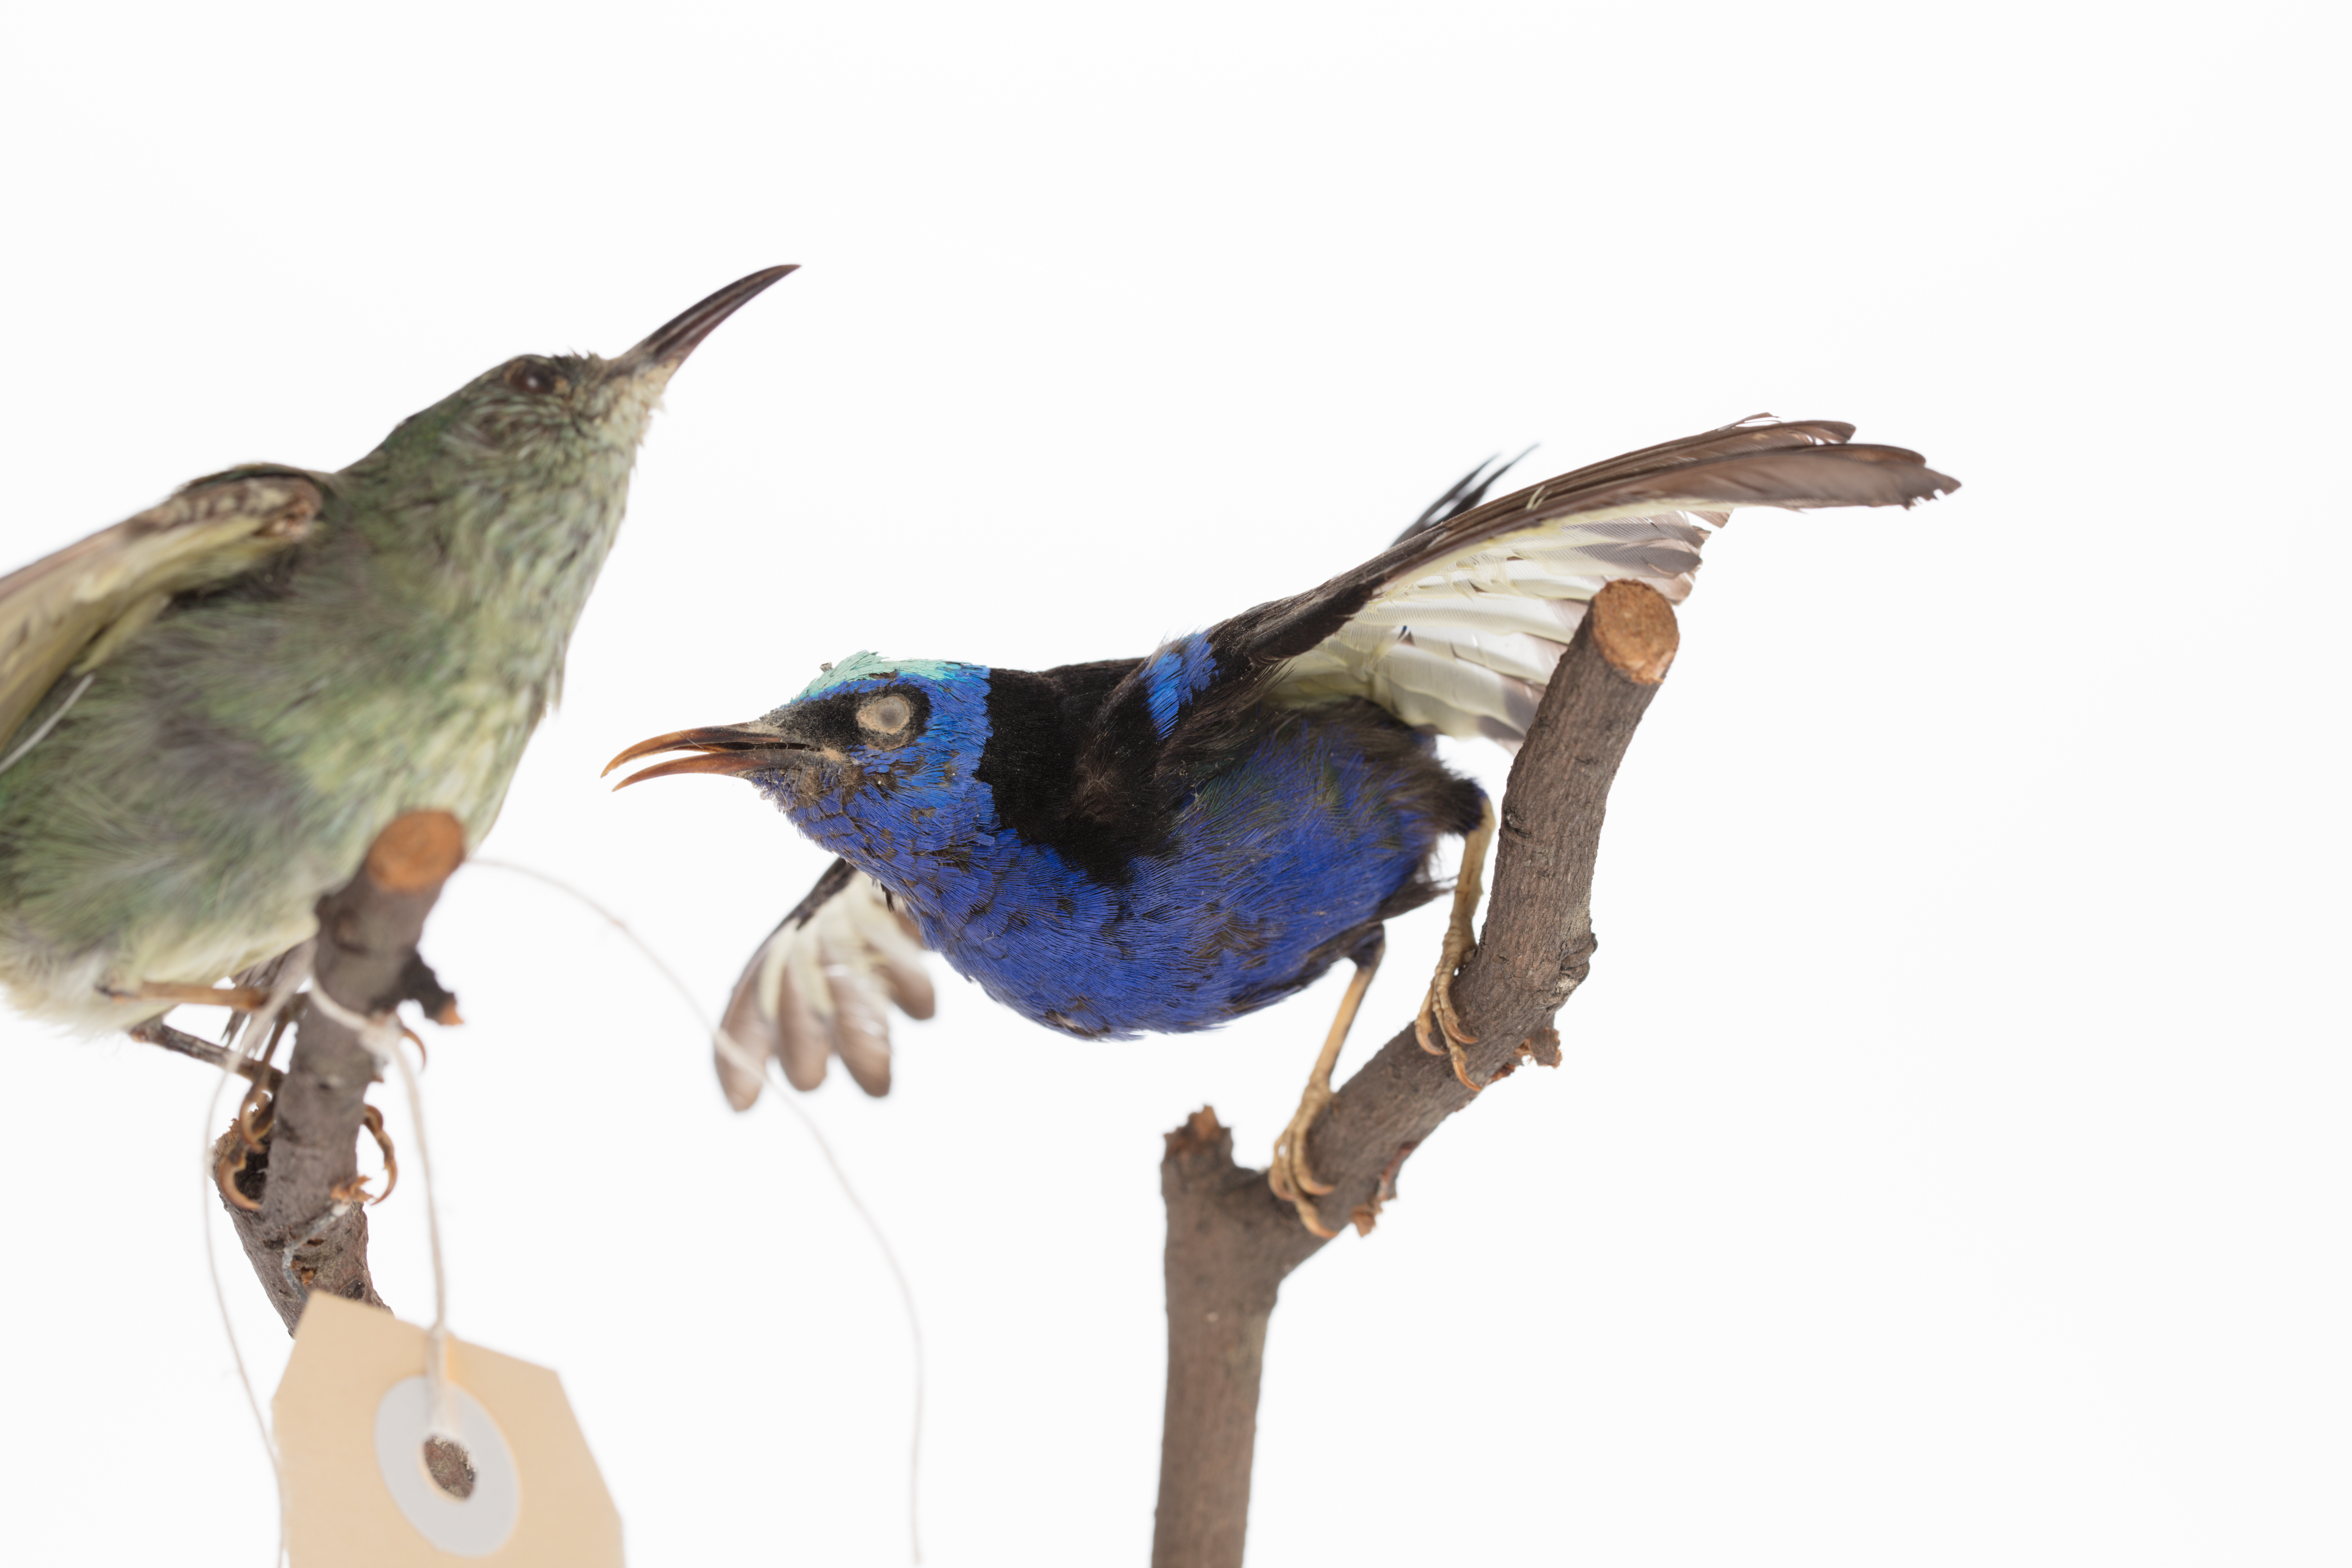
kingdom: Animalia
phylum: Chordata
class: Aves
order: Passeriformes
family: Thraupidae
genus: Coereba
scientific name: Coereba flaveola
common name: Bananaquit
